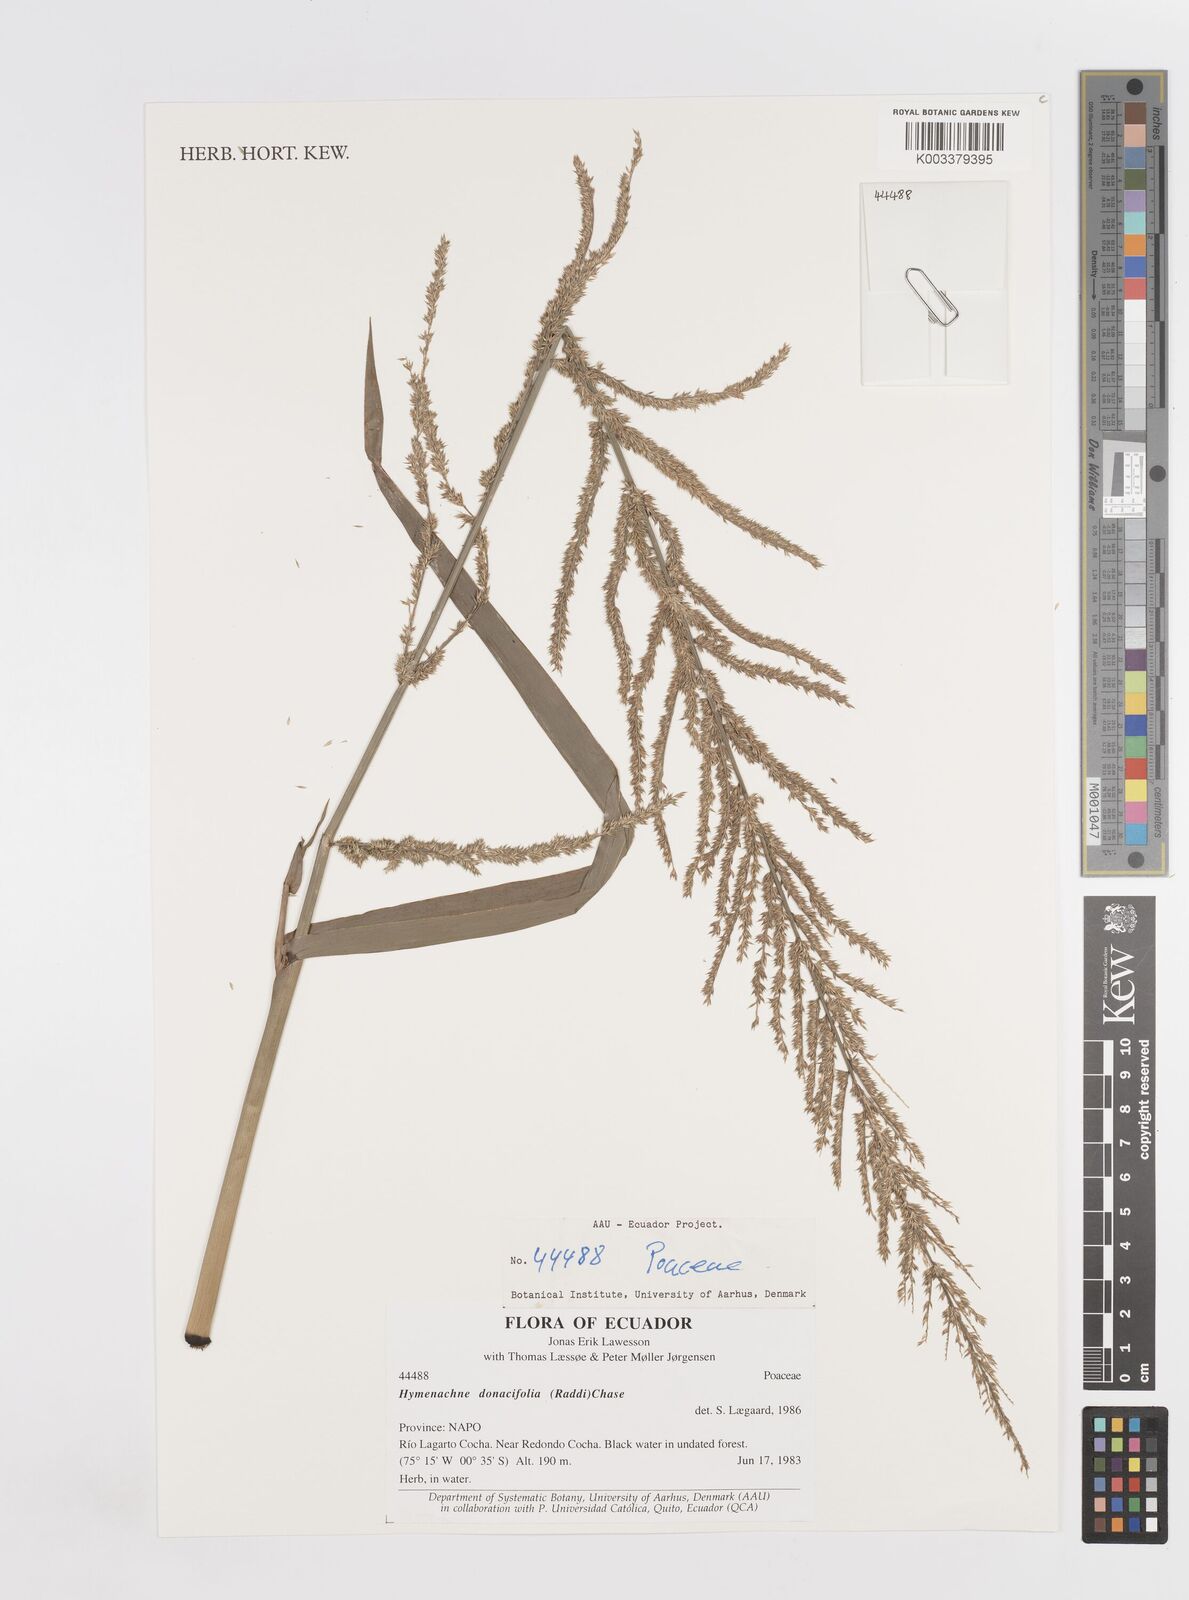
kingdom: Plantae
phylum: Tracheophyta
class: Liliopsida
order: Poales
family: Poaceae
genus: Hymenachne
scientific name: Hymenachne donacifolia
